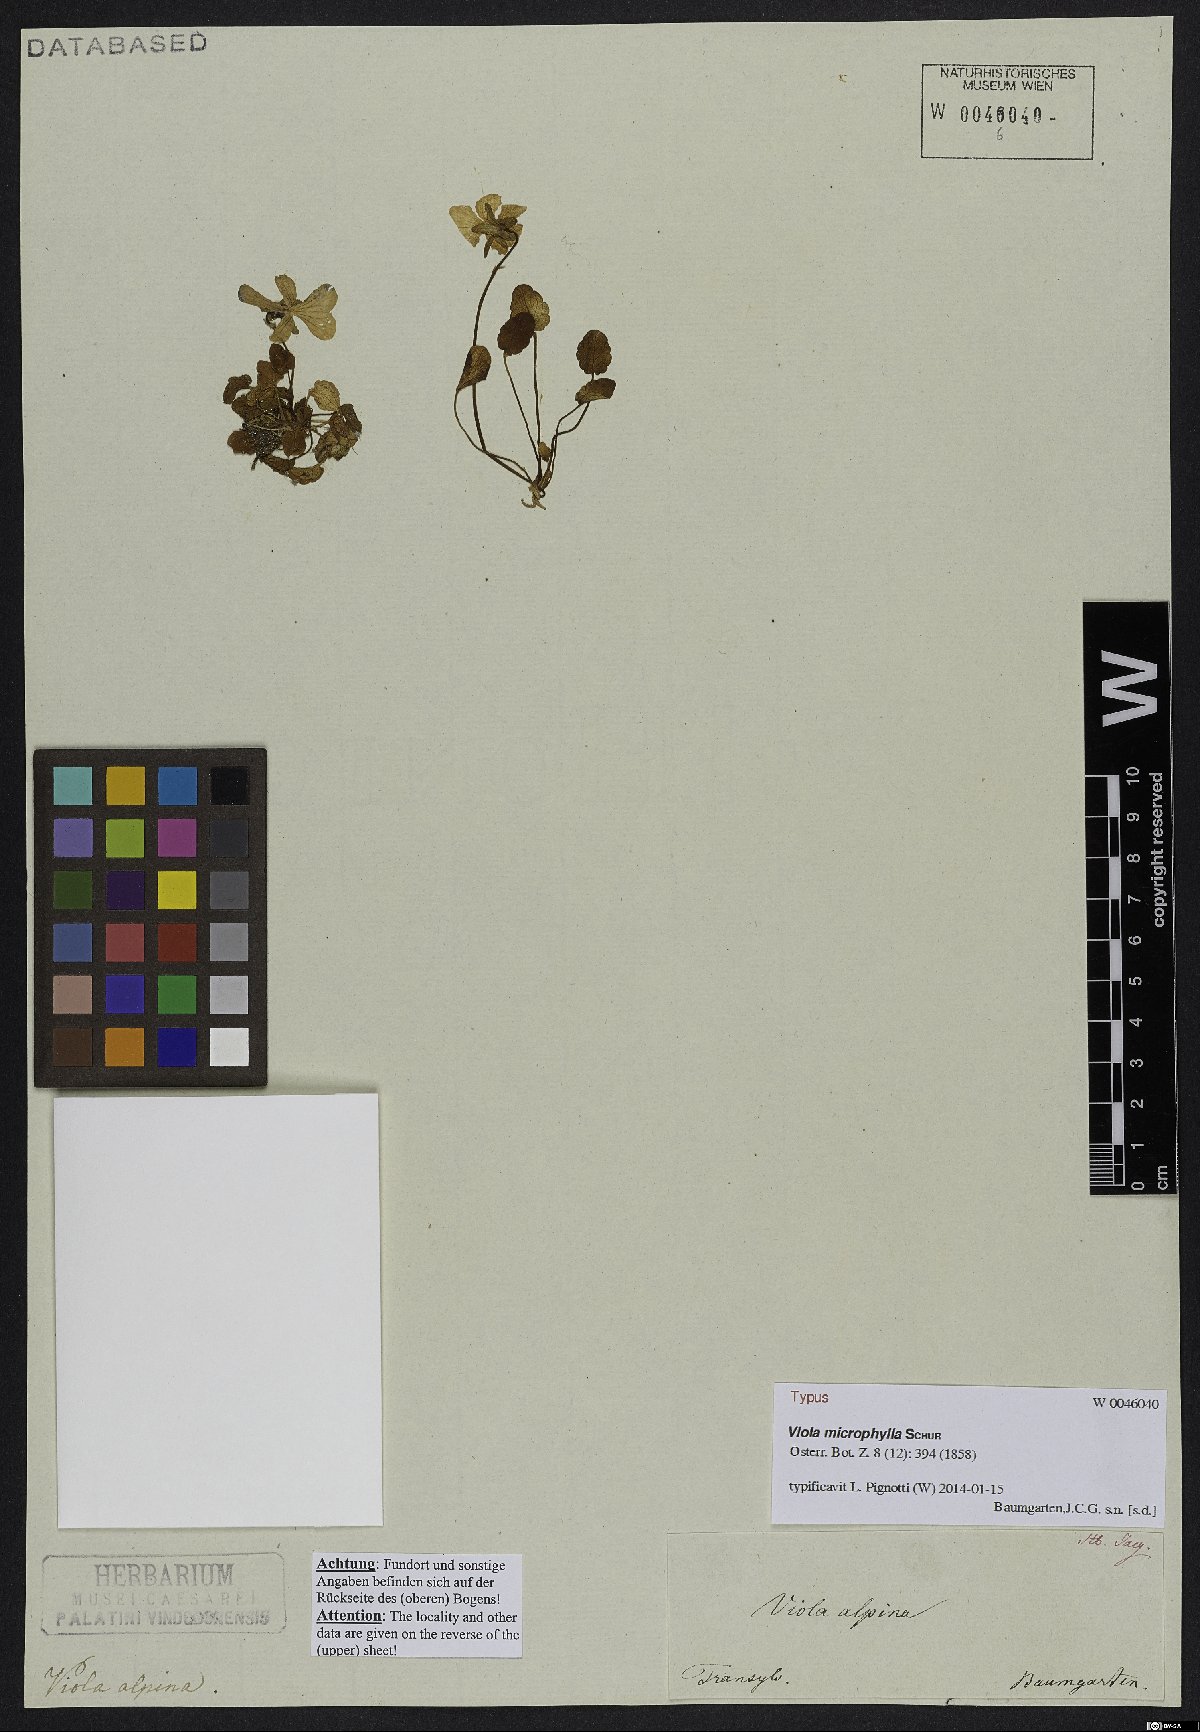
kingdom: Plantae
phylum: Tracheophyta
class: Magnoliopsida
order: Malpighiales
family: Violaceae
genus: Viola
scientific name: Viola alpina
